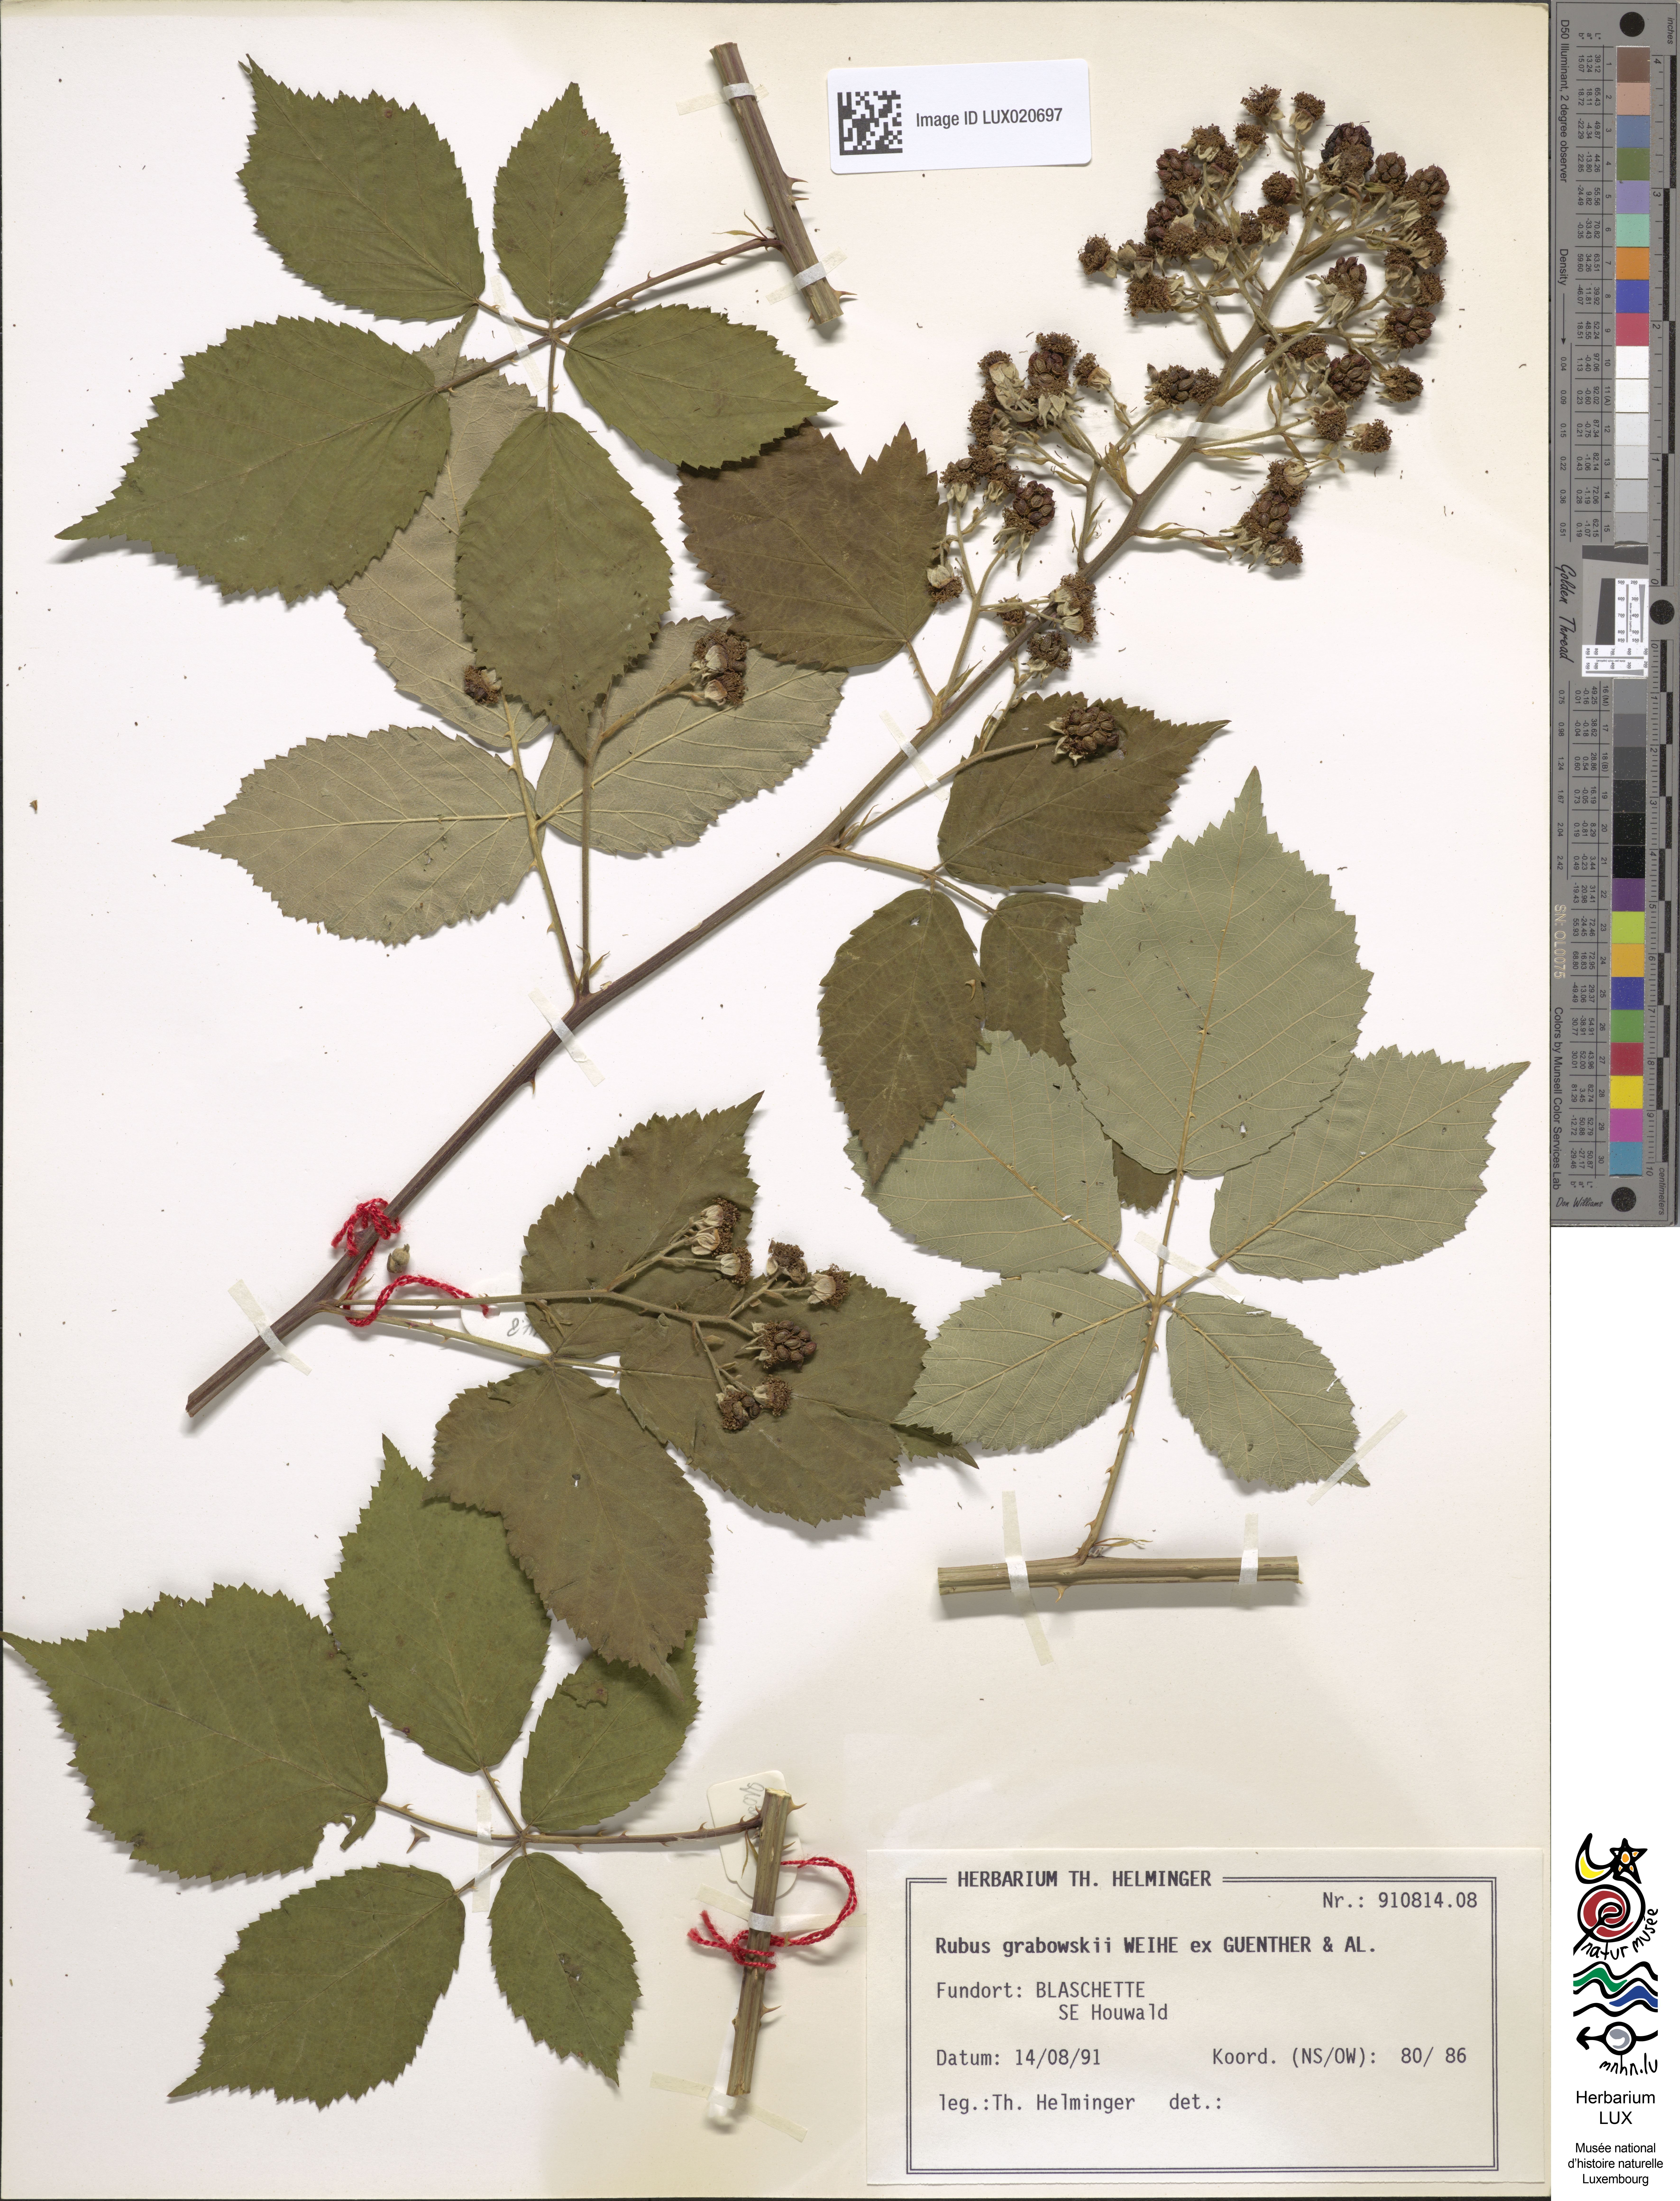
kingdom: Plantae
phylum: Tracheophyta
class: Magnoliopsida
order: Rosales
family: Rosaceae
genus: Rubus
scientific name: Rubus grabowskii
